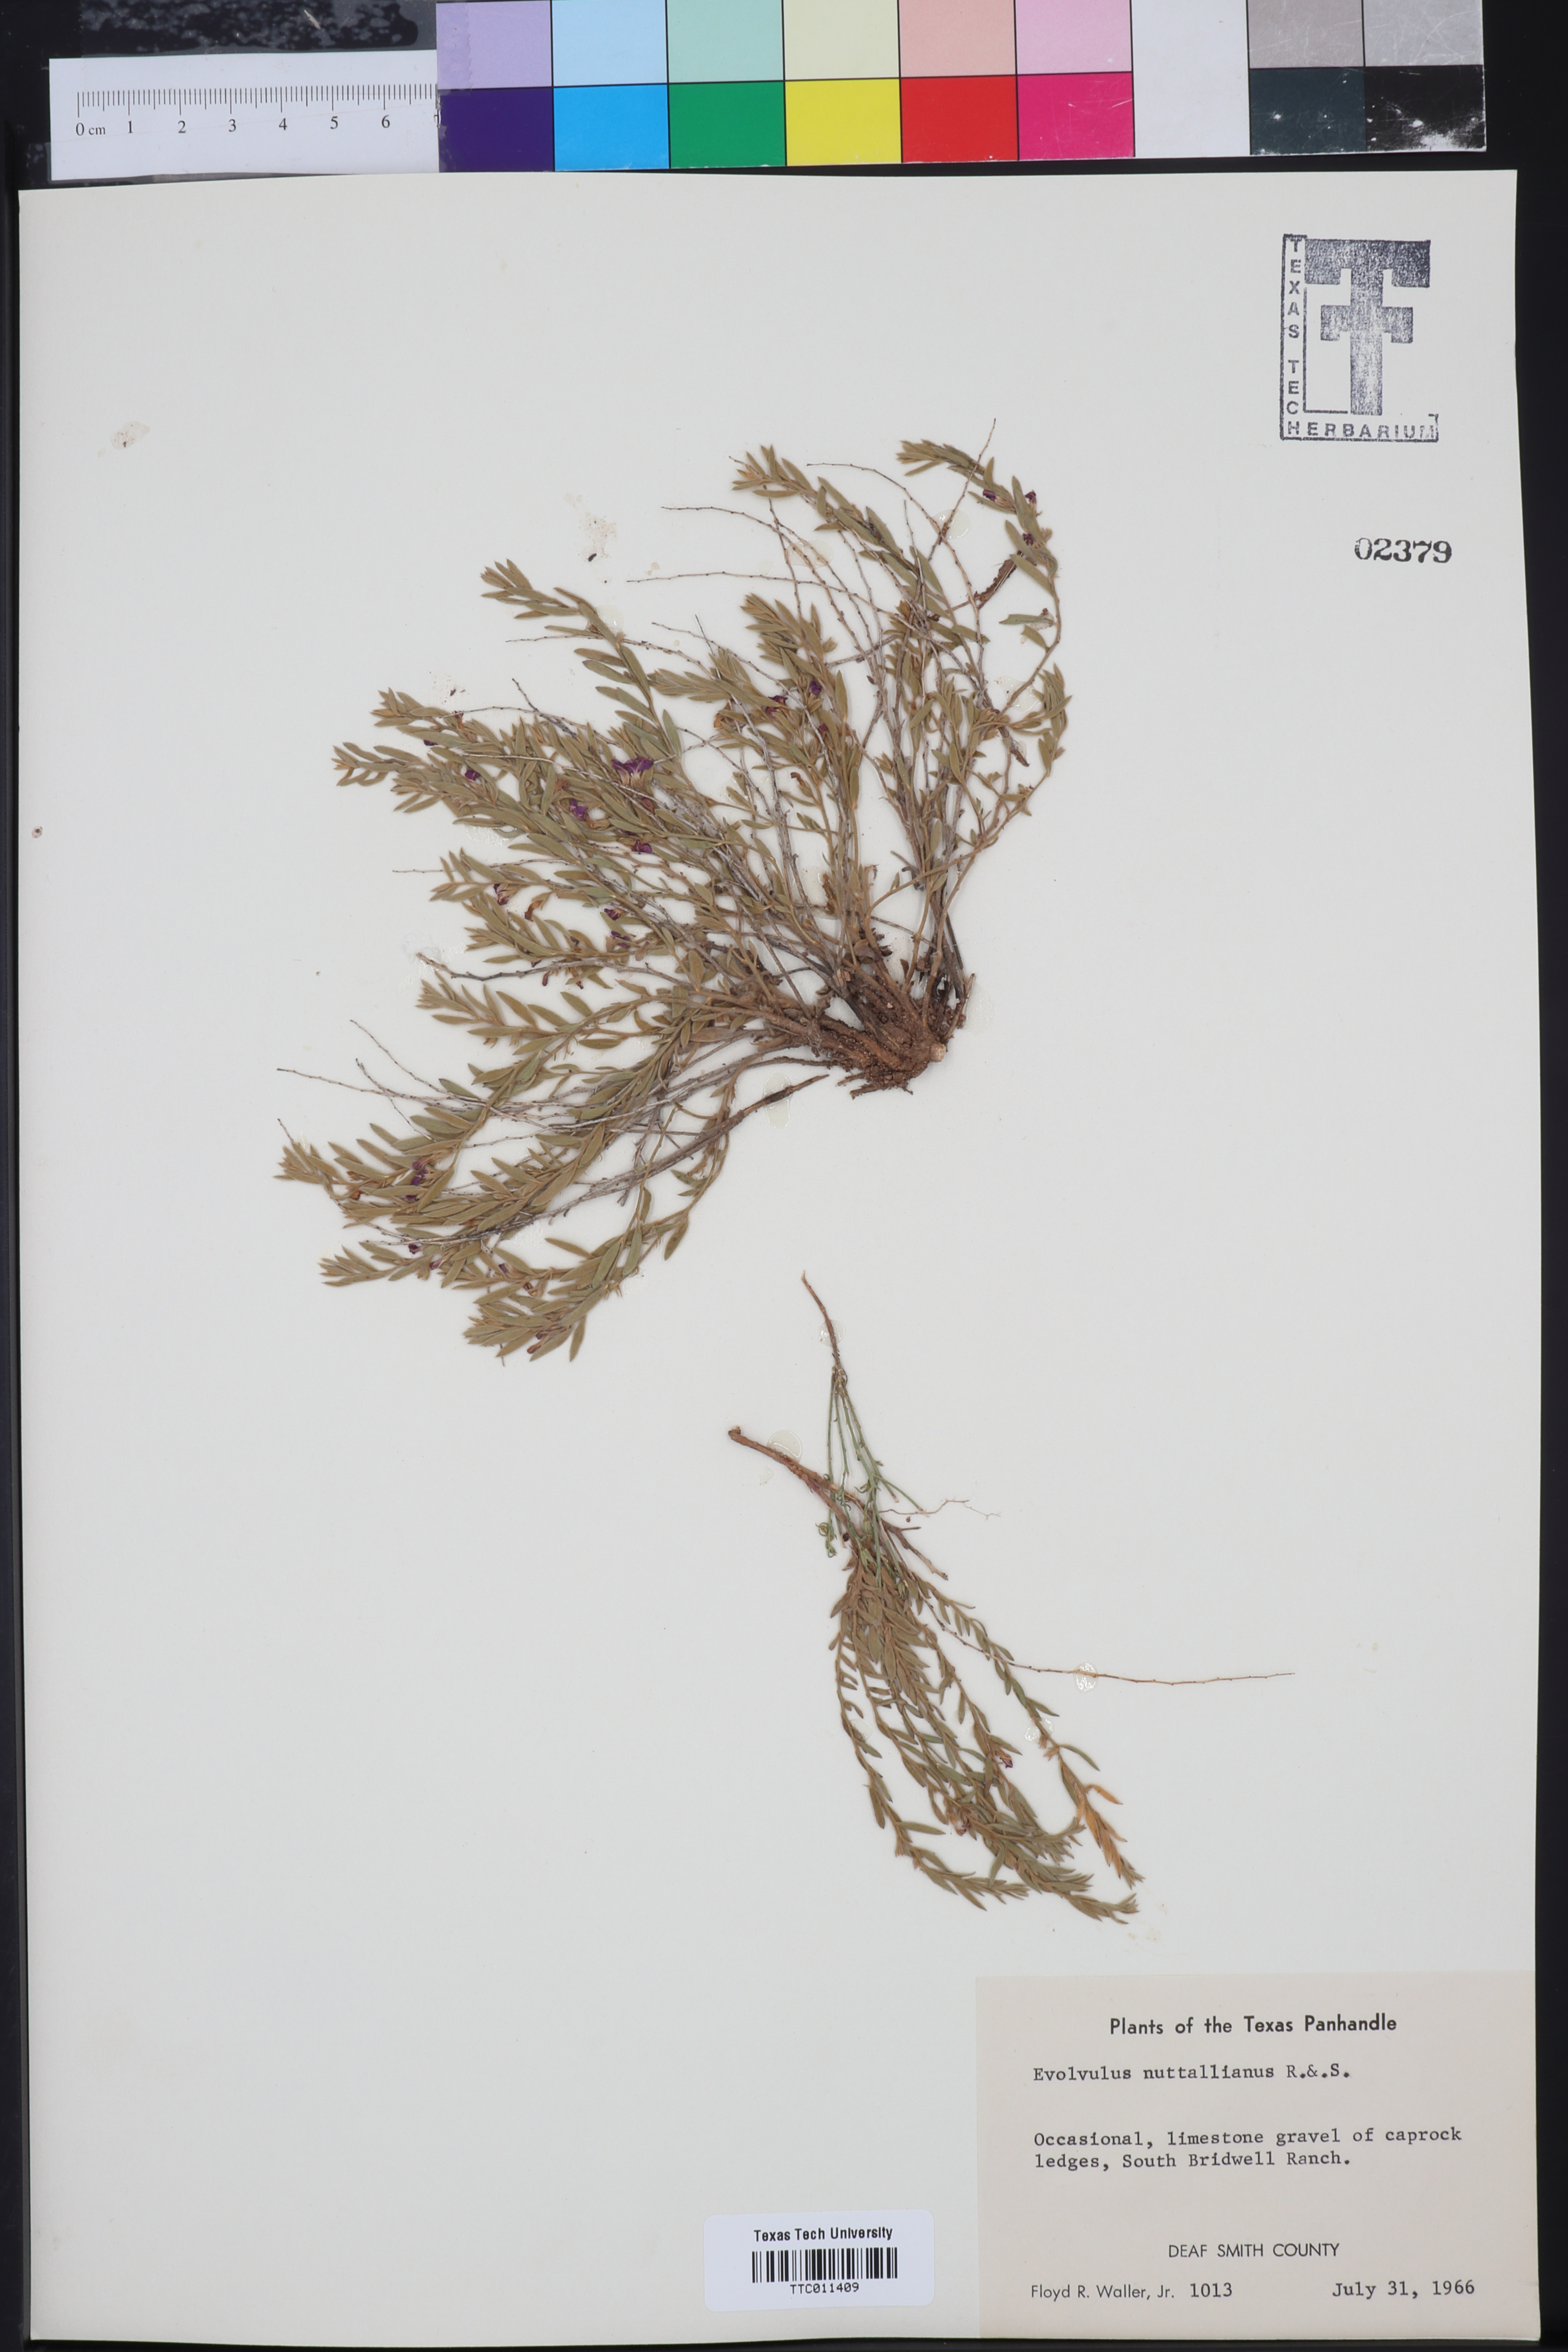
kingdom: Plantae
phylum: Tracheophyta
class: Magnoliopsida
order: Solanales
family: Convolvulaceae
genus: Evolvulus
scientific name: Evolvulus nuttallianus
